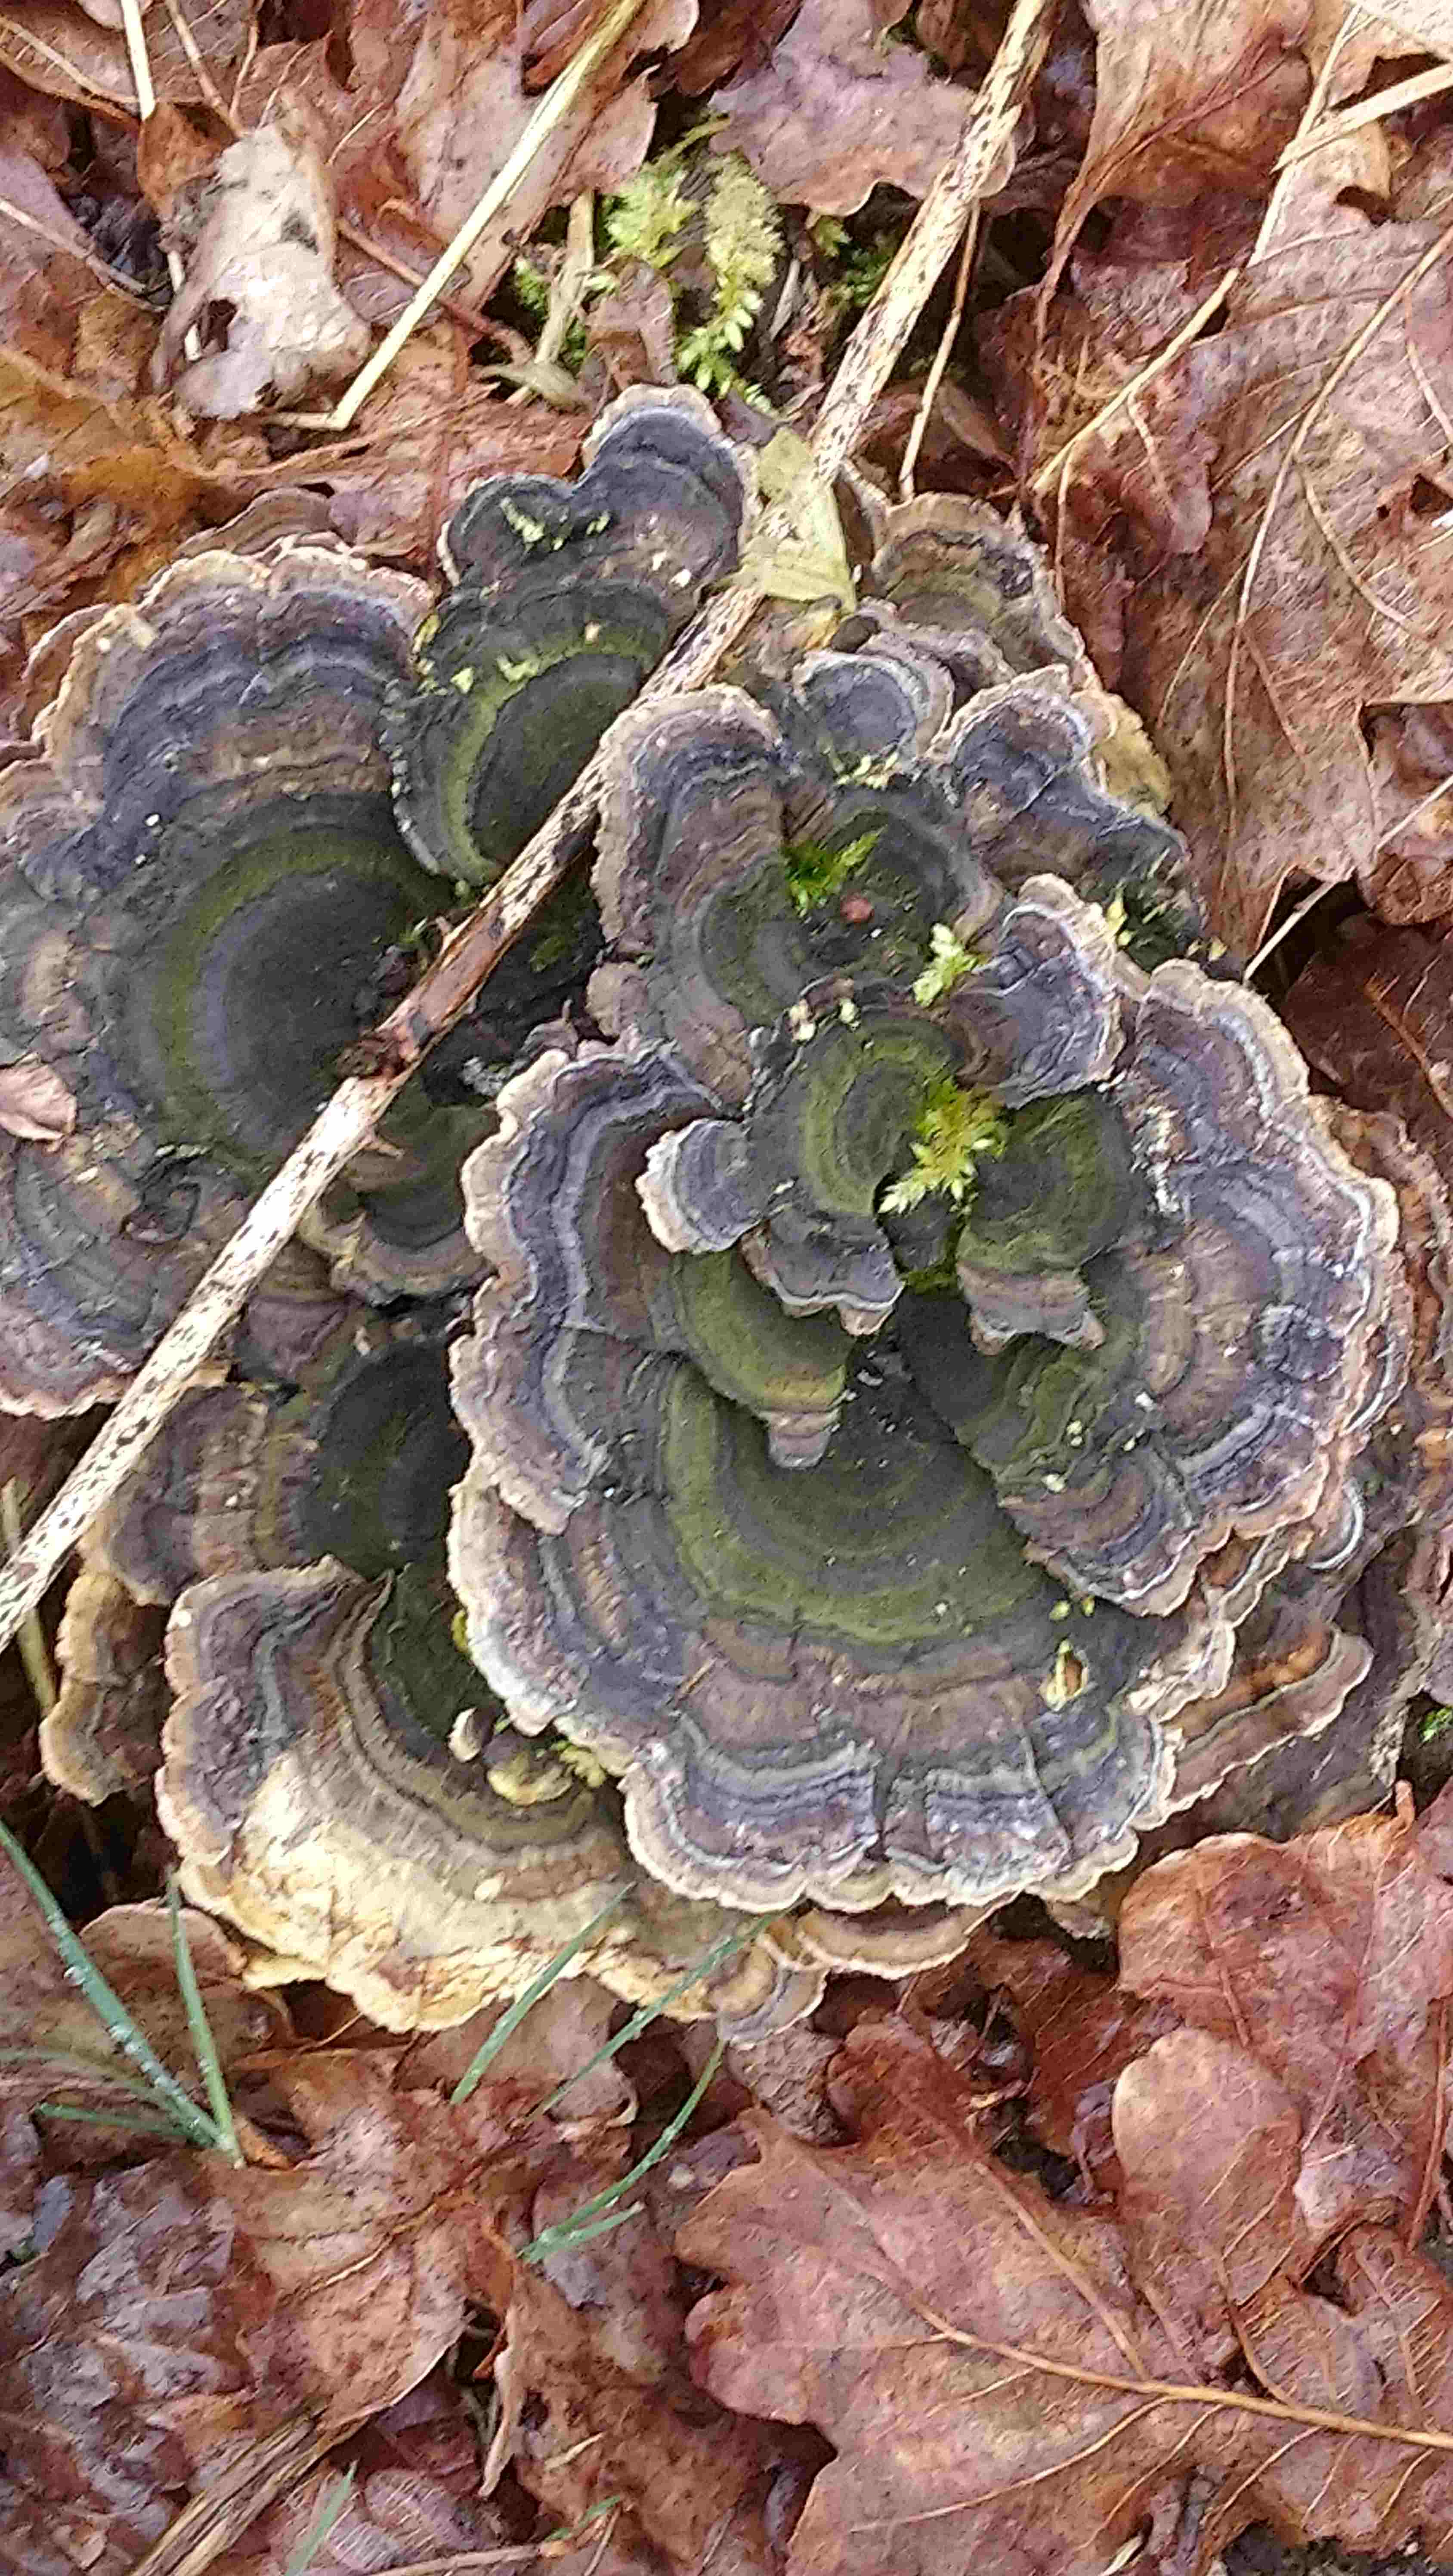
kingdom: Fungi
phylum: Basidiomycota
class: Agaricomycetes
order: Polyporales
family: Polyporaceae
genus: Trametes
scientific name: Trametes versicolor
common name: broget læderporesvamp
